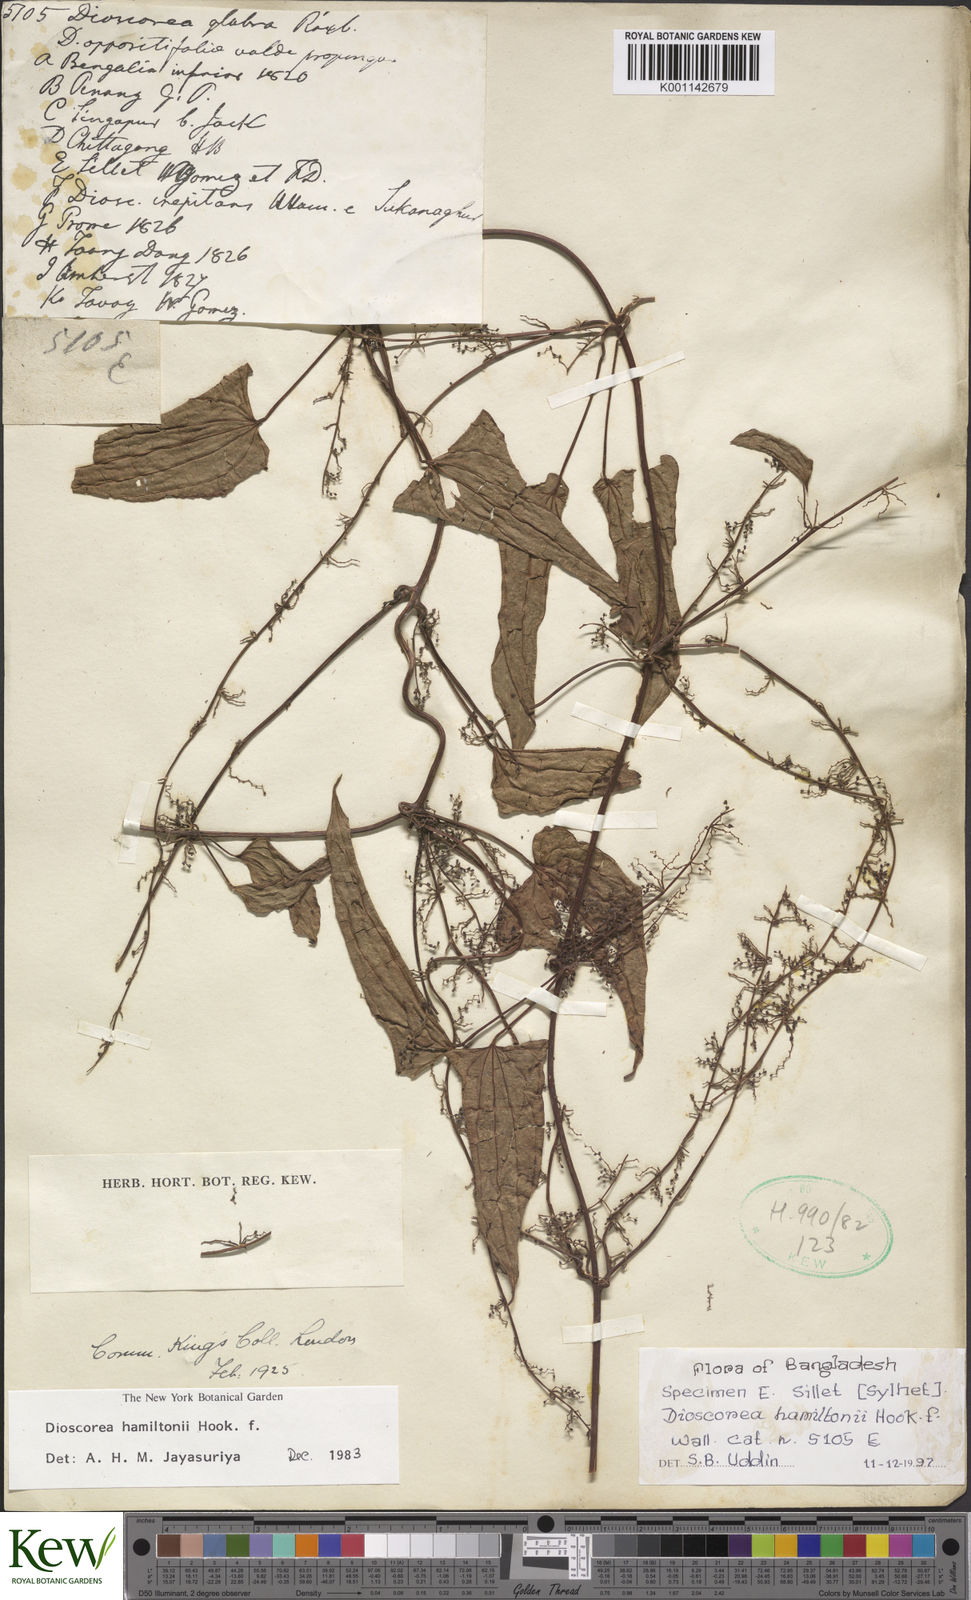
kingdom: Plantae
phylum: Tracheophyta
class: Liliopsida
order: Dioscoreales
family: Dioscoreaceae
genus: Dioscorea
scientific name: Dioscorea hamiltonii
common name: Mountain yam
